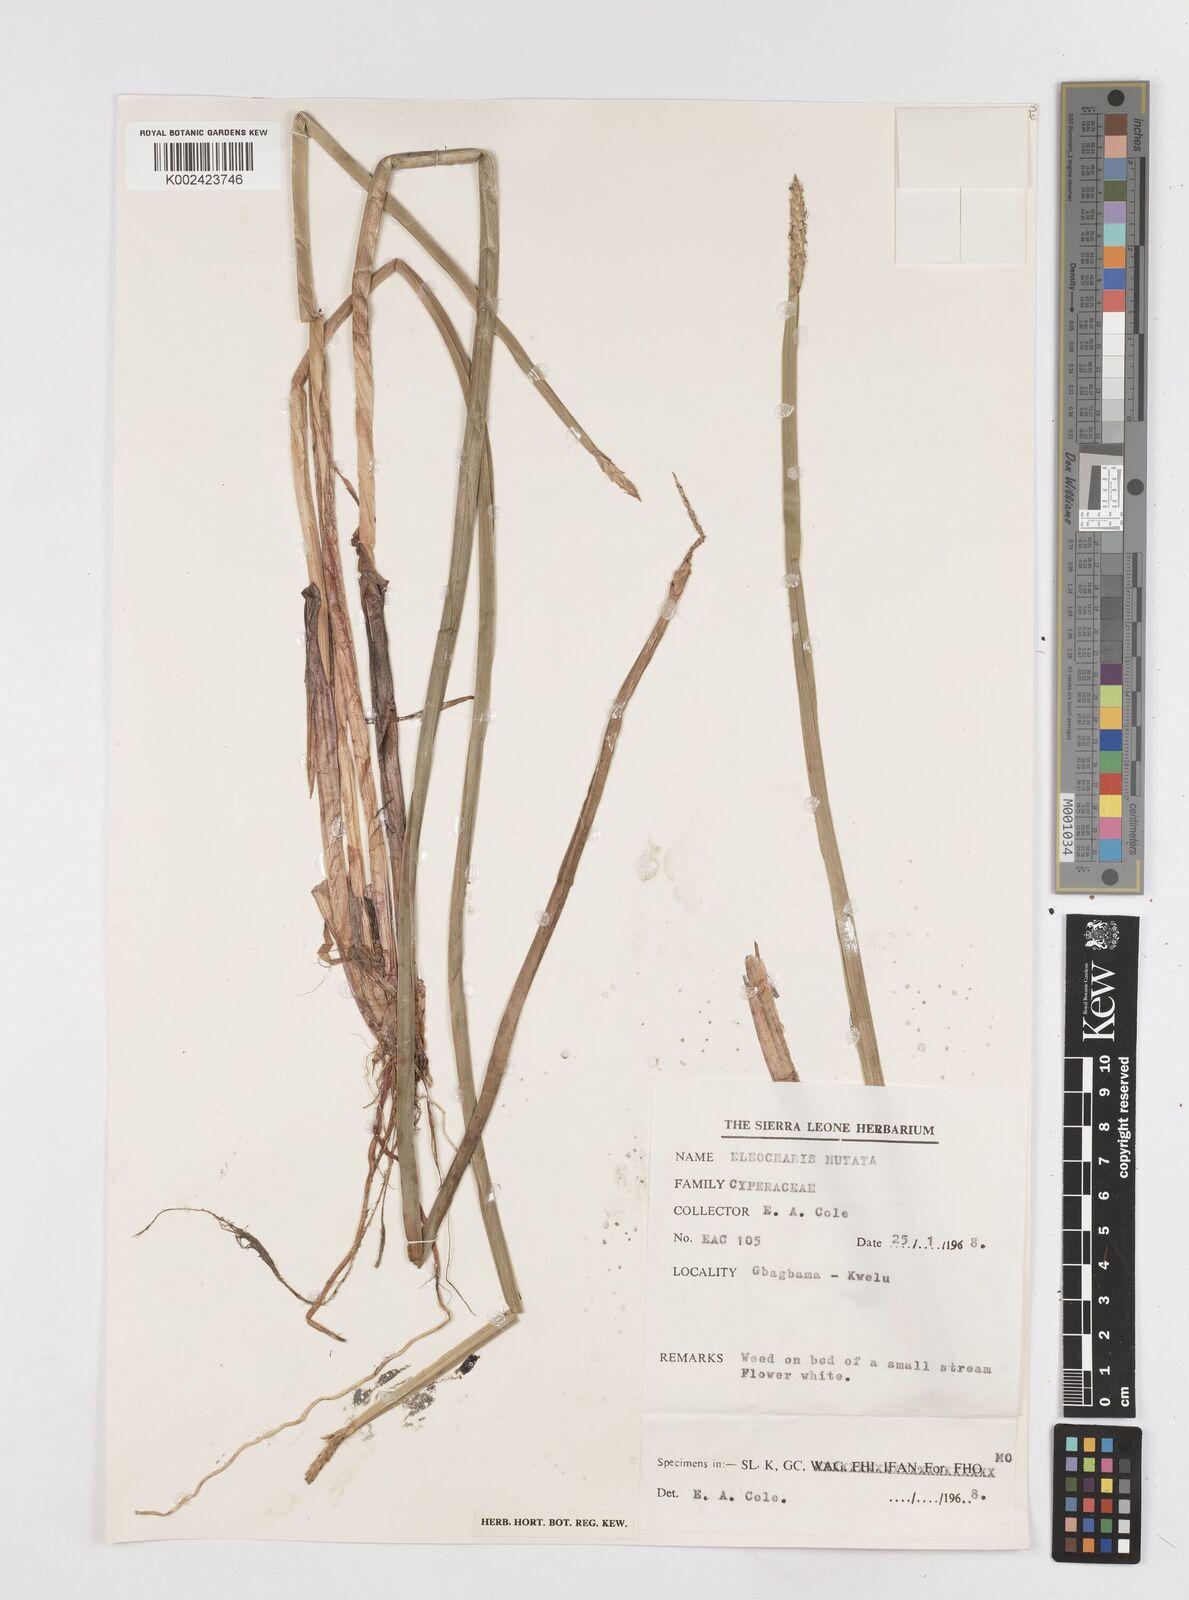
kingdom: Plantae
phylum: Tracheophyta
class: Liliopsida
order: Poales
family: Cyperaceae
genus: Eleocharis
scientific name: Eleocharis mutata
